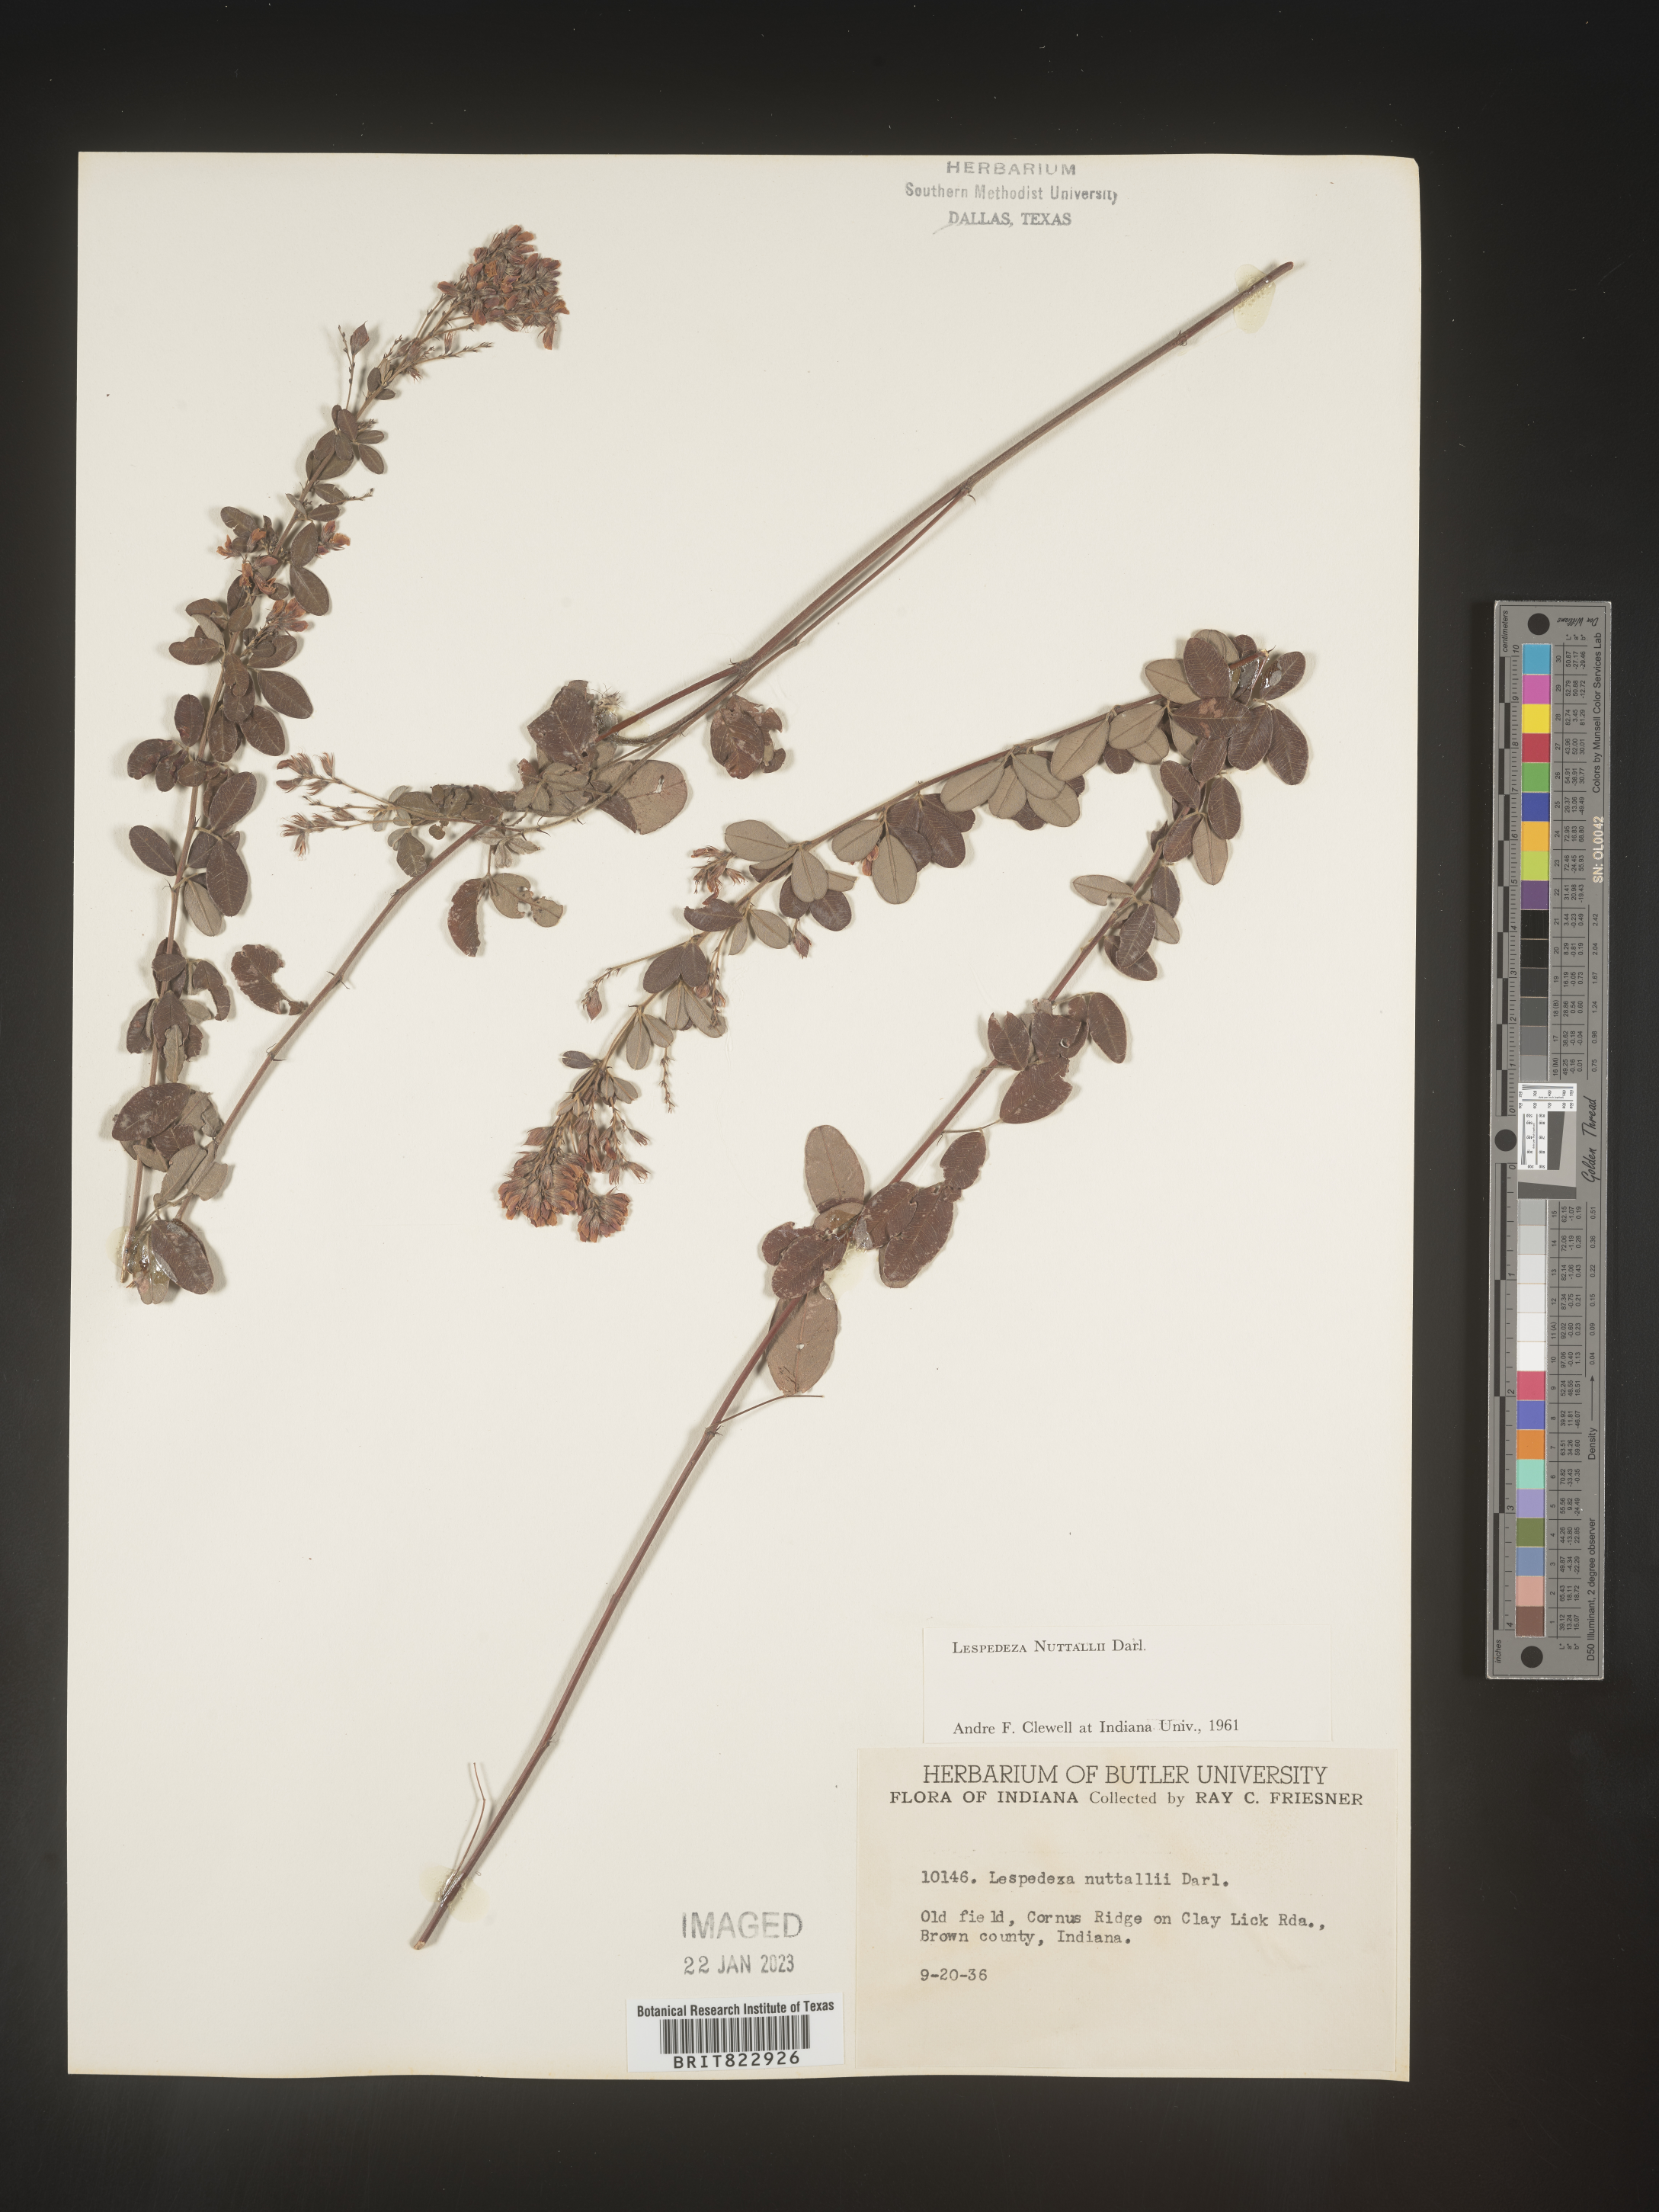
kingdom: Plantae
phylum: Tracheophyta
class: Magnoliopsida
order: Fabales
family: Fabaceae
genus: Lespedeza
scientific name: Lespedeza
